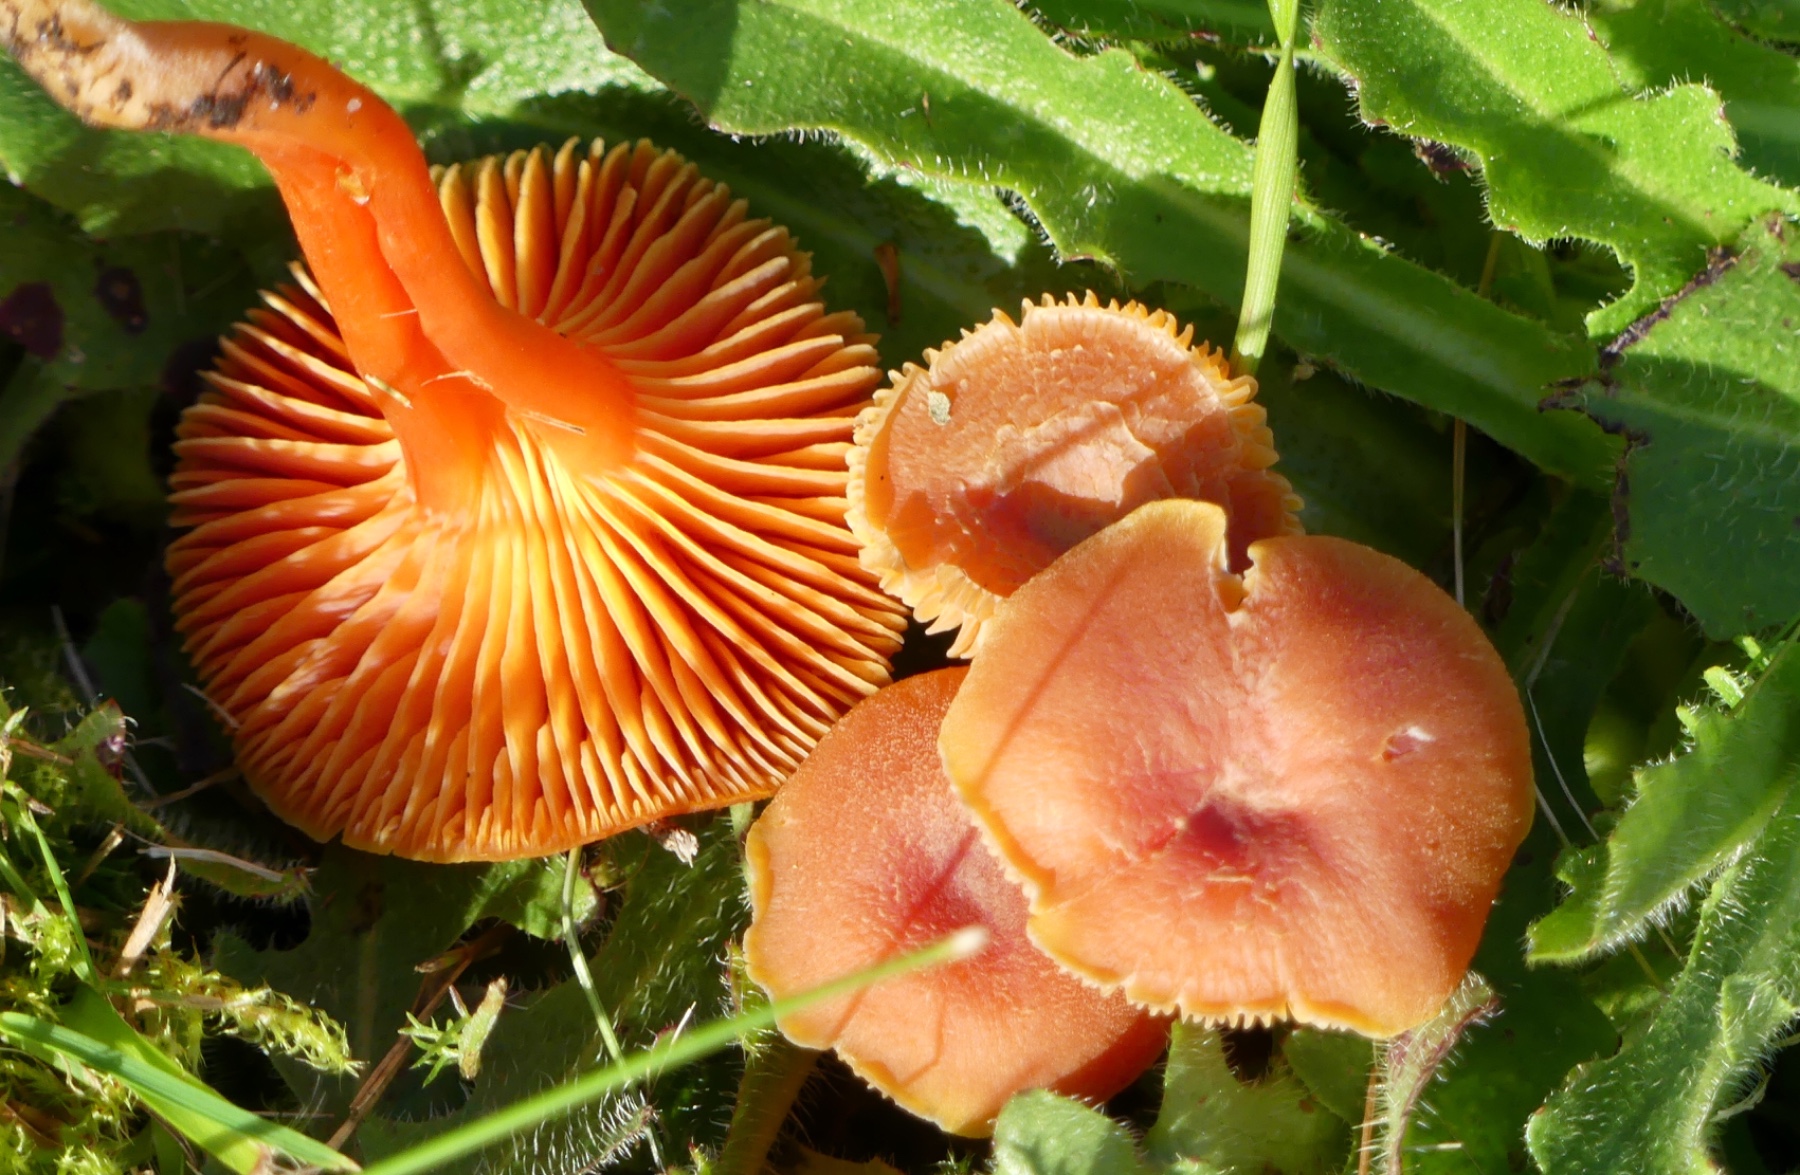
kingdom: Fungi
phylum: Basidiomycota
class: Agaricomycetes
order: Agaricales
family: Hygrophoraceae
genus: Hygrocybe
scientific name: Hygrocybe miniata
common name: mønje-vokshat
